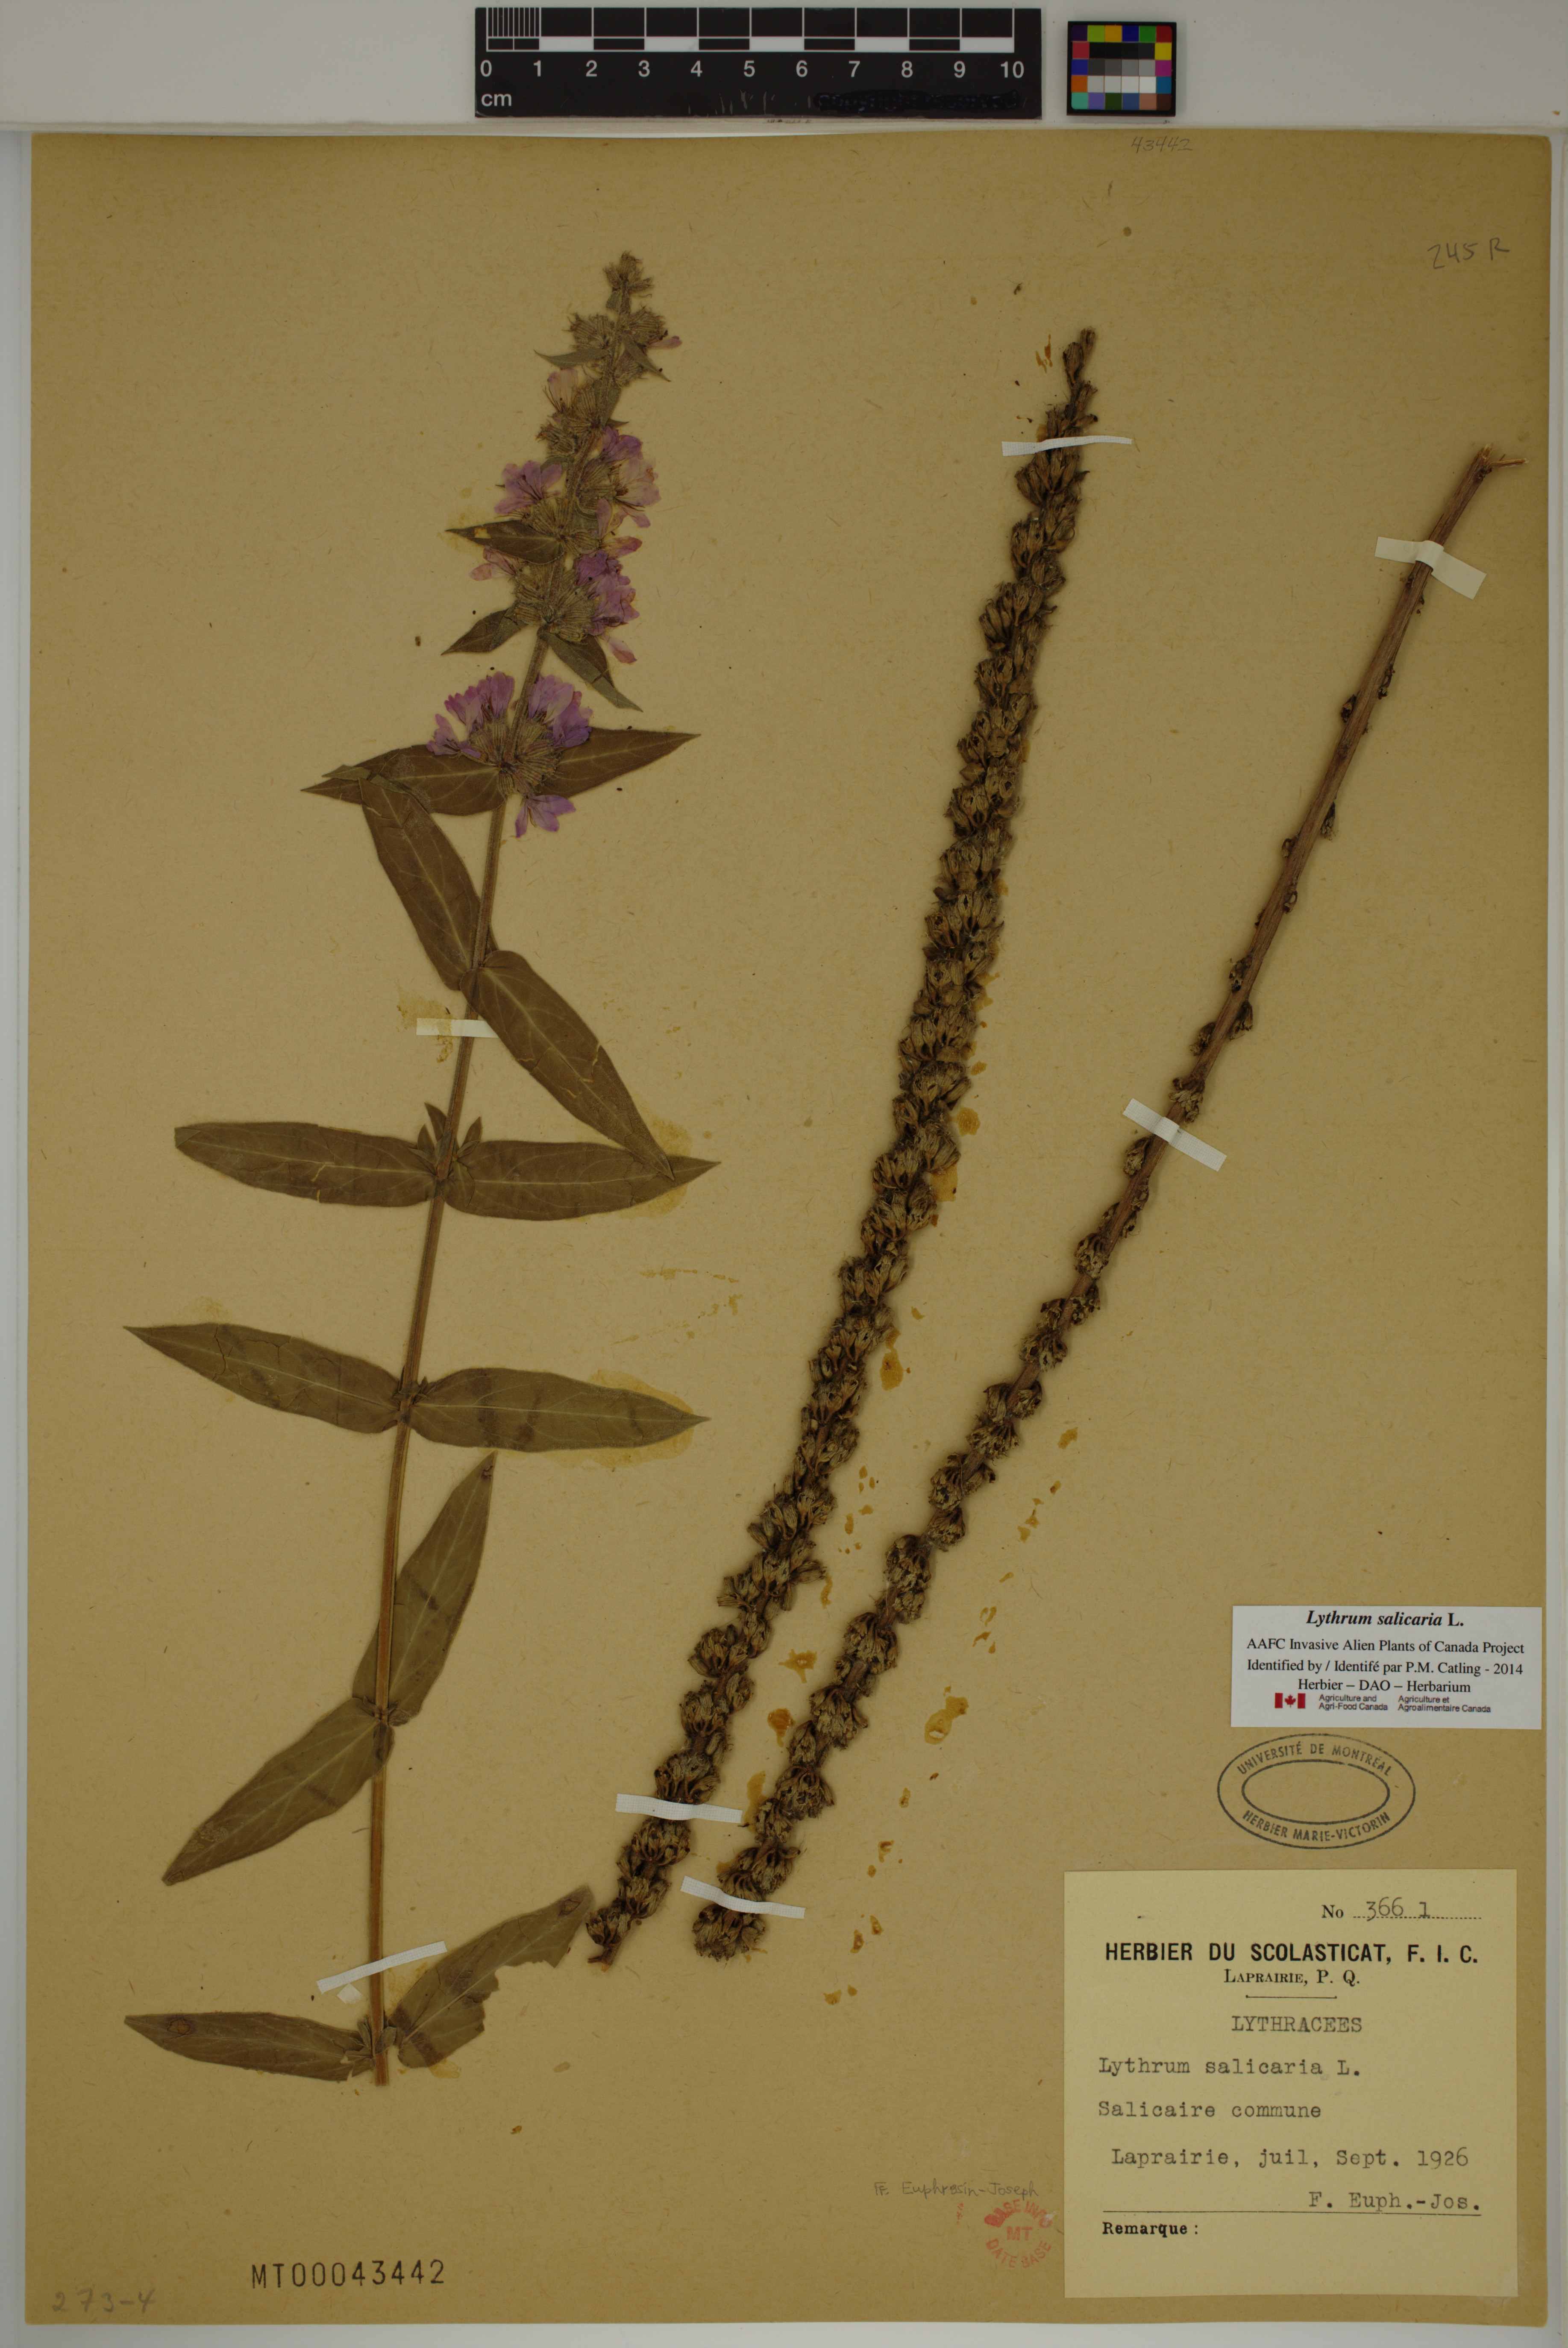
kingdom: Plantae
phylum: Tracheophyta
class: Magnoliopsida
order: Myrtales
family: Lythraceae
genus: Lythrum
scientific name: Lythrum salicaria
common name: Purple loosestrife
